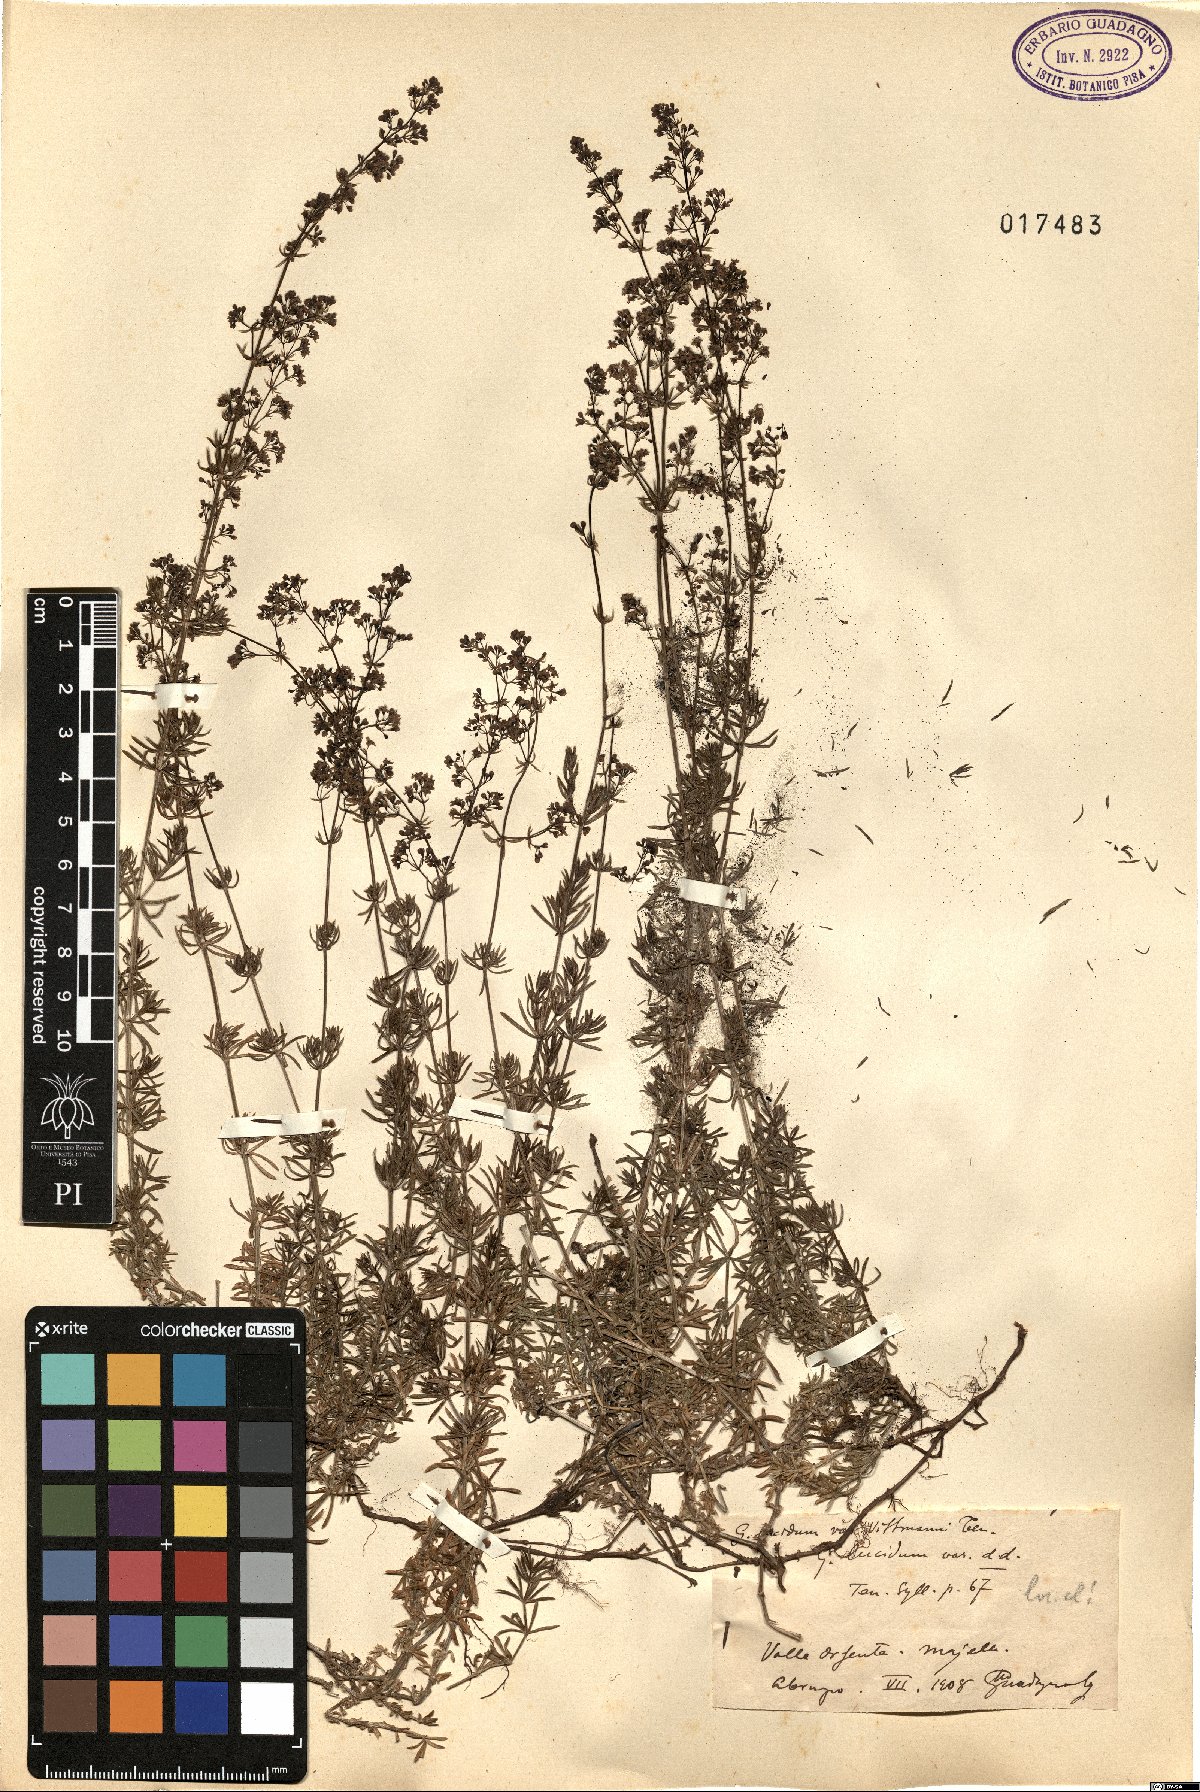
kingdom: Plantae
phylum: Tracheophyta
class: Magnoliopsida
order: Gentianales
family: Rubiaceae
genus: Galium
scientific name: Galium lucidum
